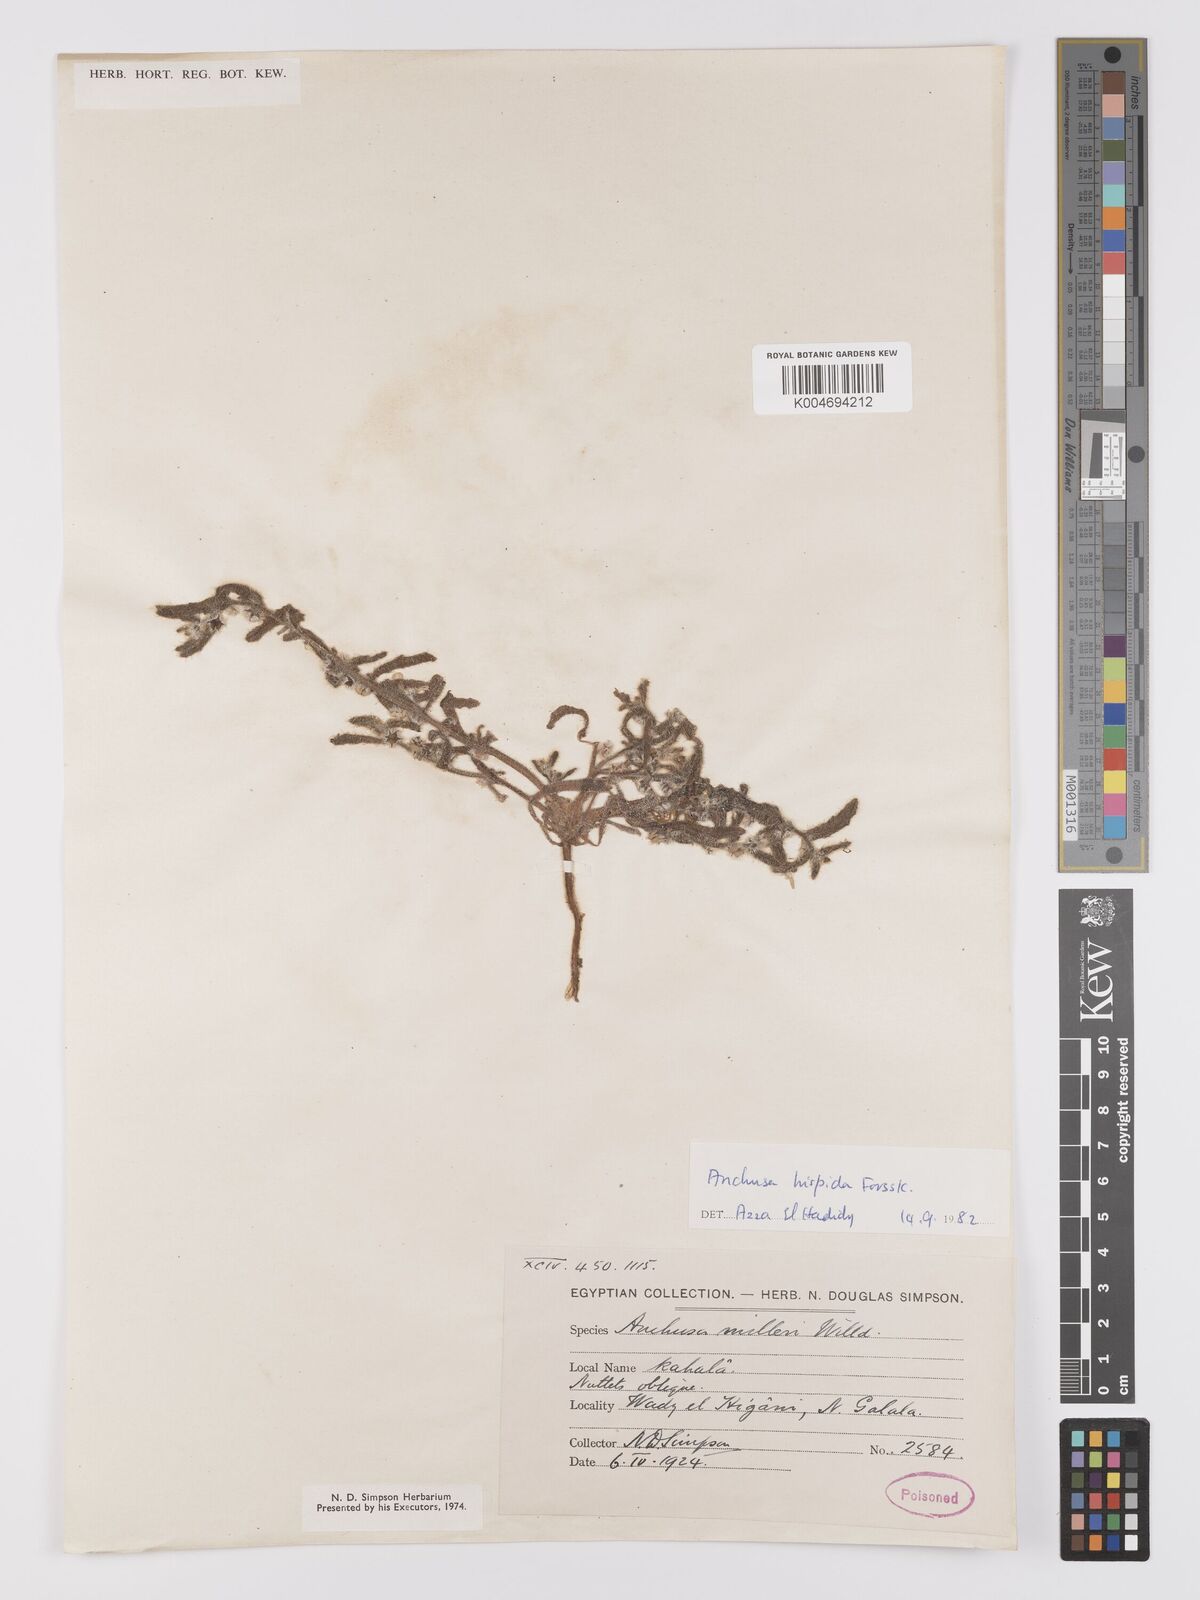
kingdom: Plantae
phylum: Tracheophyta
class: Magnoliopsida
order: Boraginales
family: Boraginaceae
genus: Gastrocotyle
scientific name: Gastrocotyle hispida
